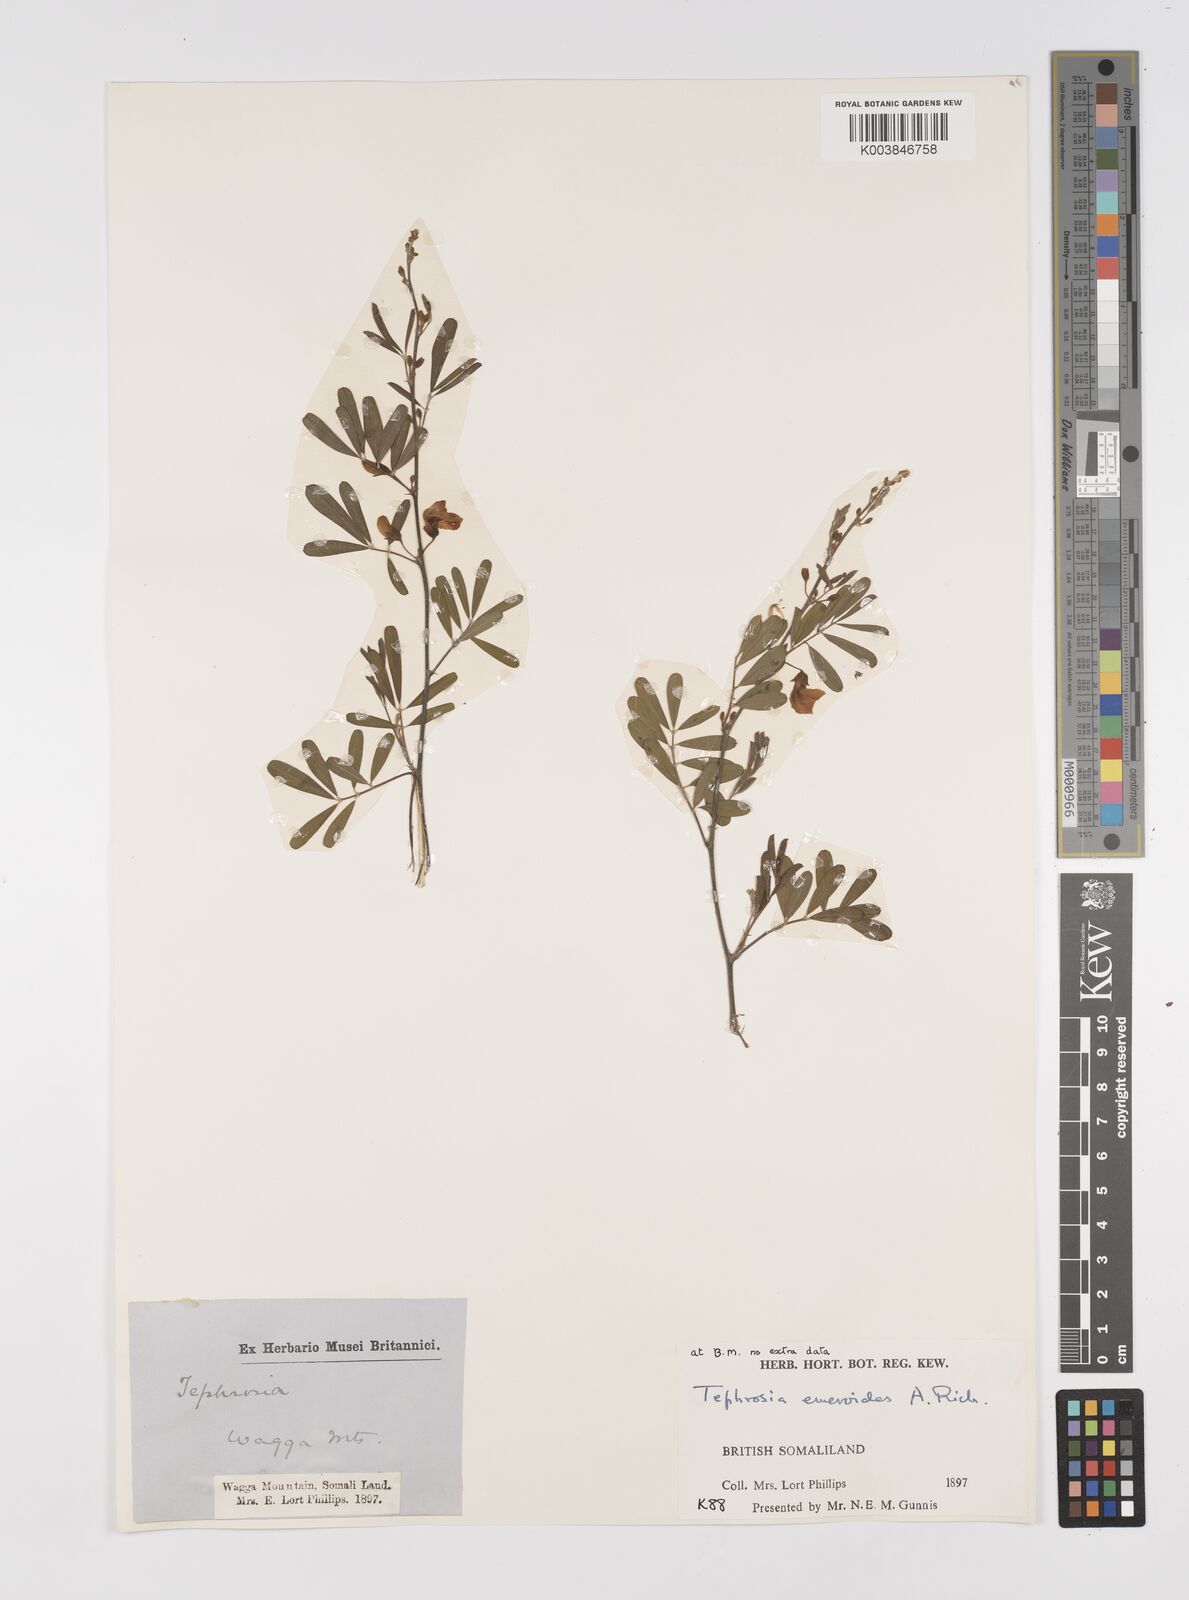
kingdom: Plantae
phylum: Tracheophyta
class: Magnoliopsida
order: Fabales
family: Fabaceae
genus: Tephrosia
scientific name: Tephrosia emeroides
